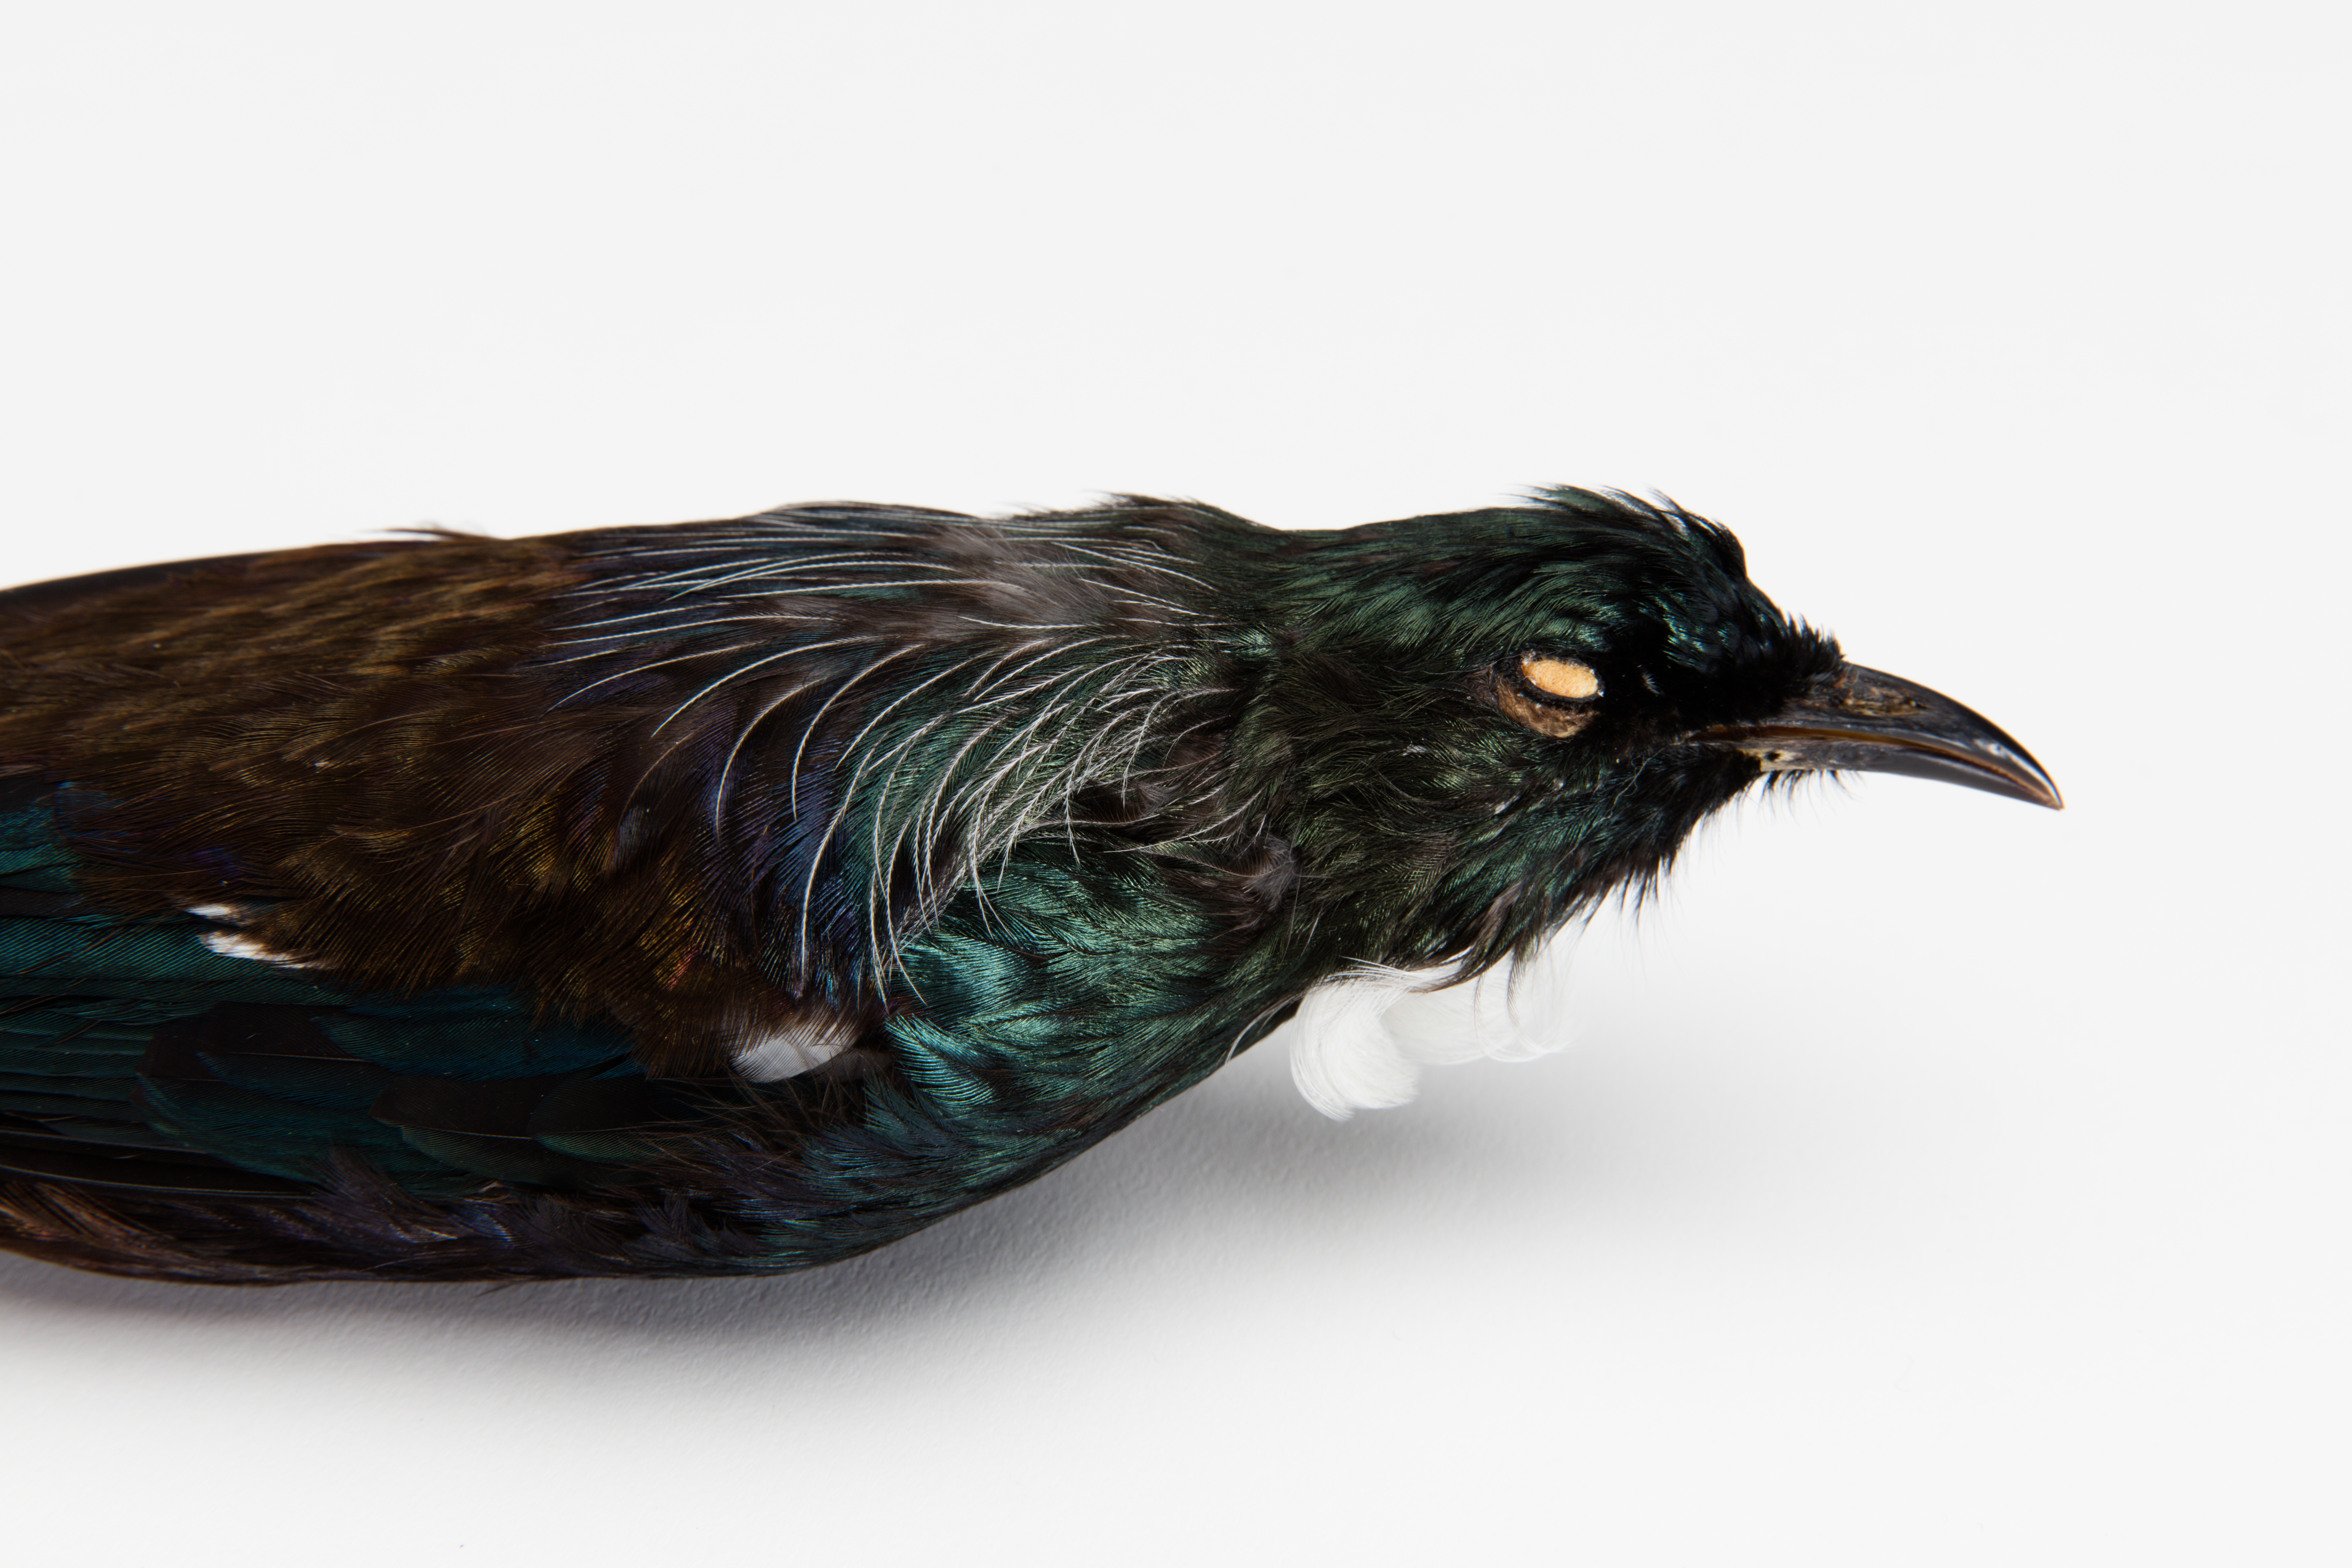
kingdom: Animalia
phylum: Chordata
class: Aves
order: Passeriformes
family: Meliphagidae
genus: Prosthemadera
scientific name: Prosthemadera novaeseelandiae
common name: Tui
